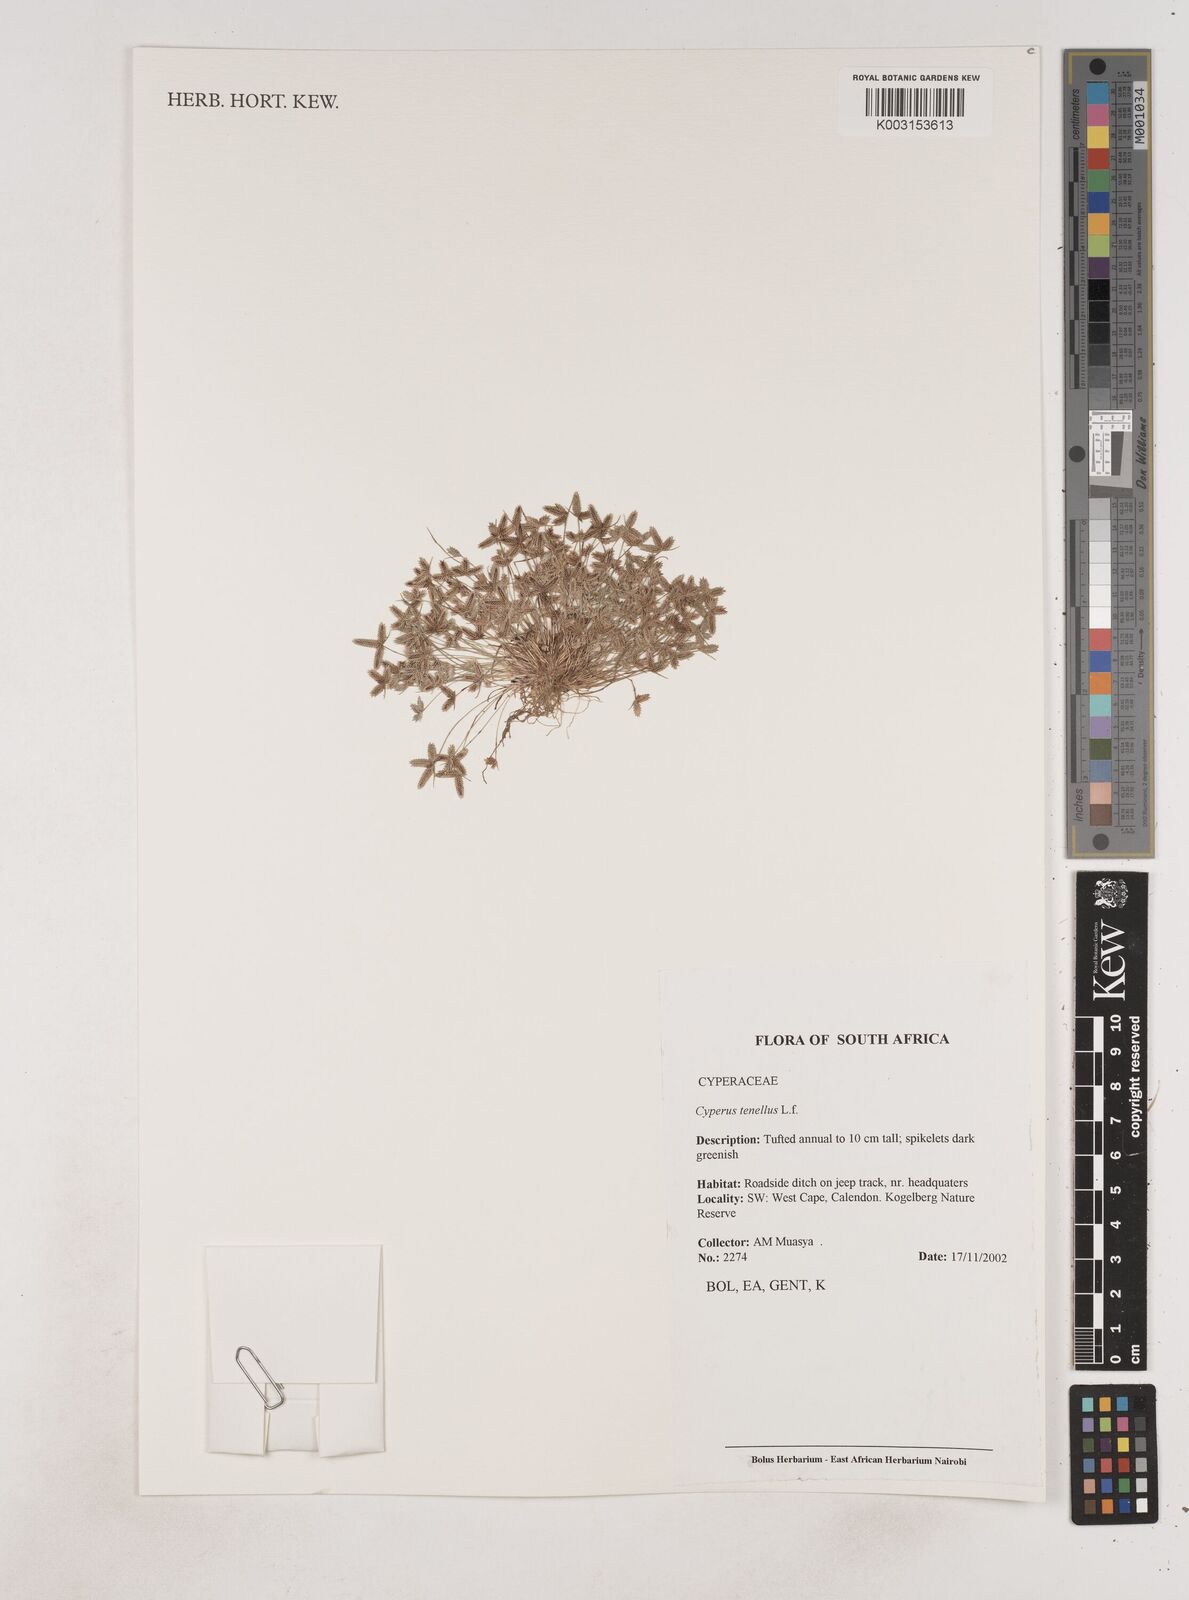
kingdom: Plantae
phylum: Tracheophyta
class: Liliopsida
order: Poales
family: Cyperaceae
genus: Isolepis
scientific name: Isolepis levynsiana
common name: Sedge
